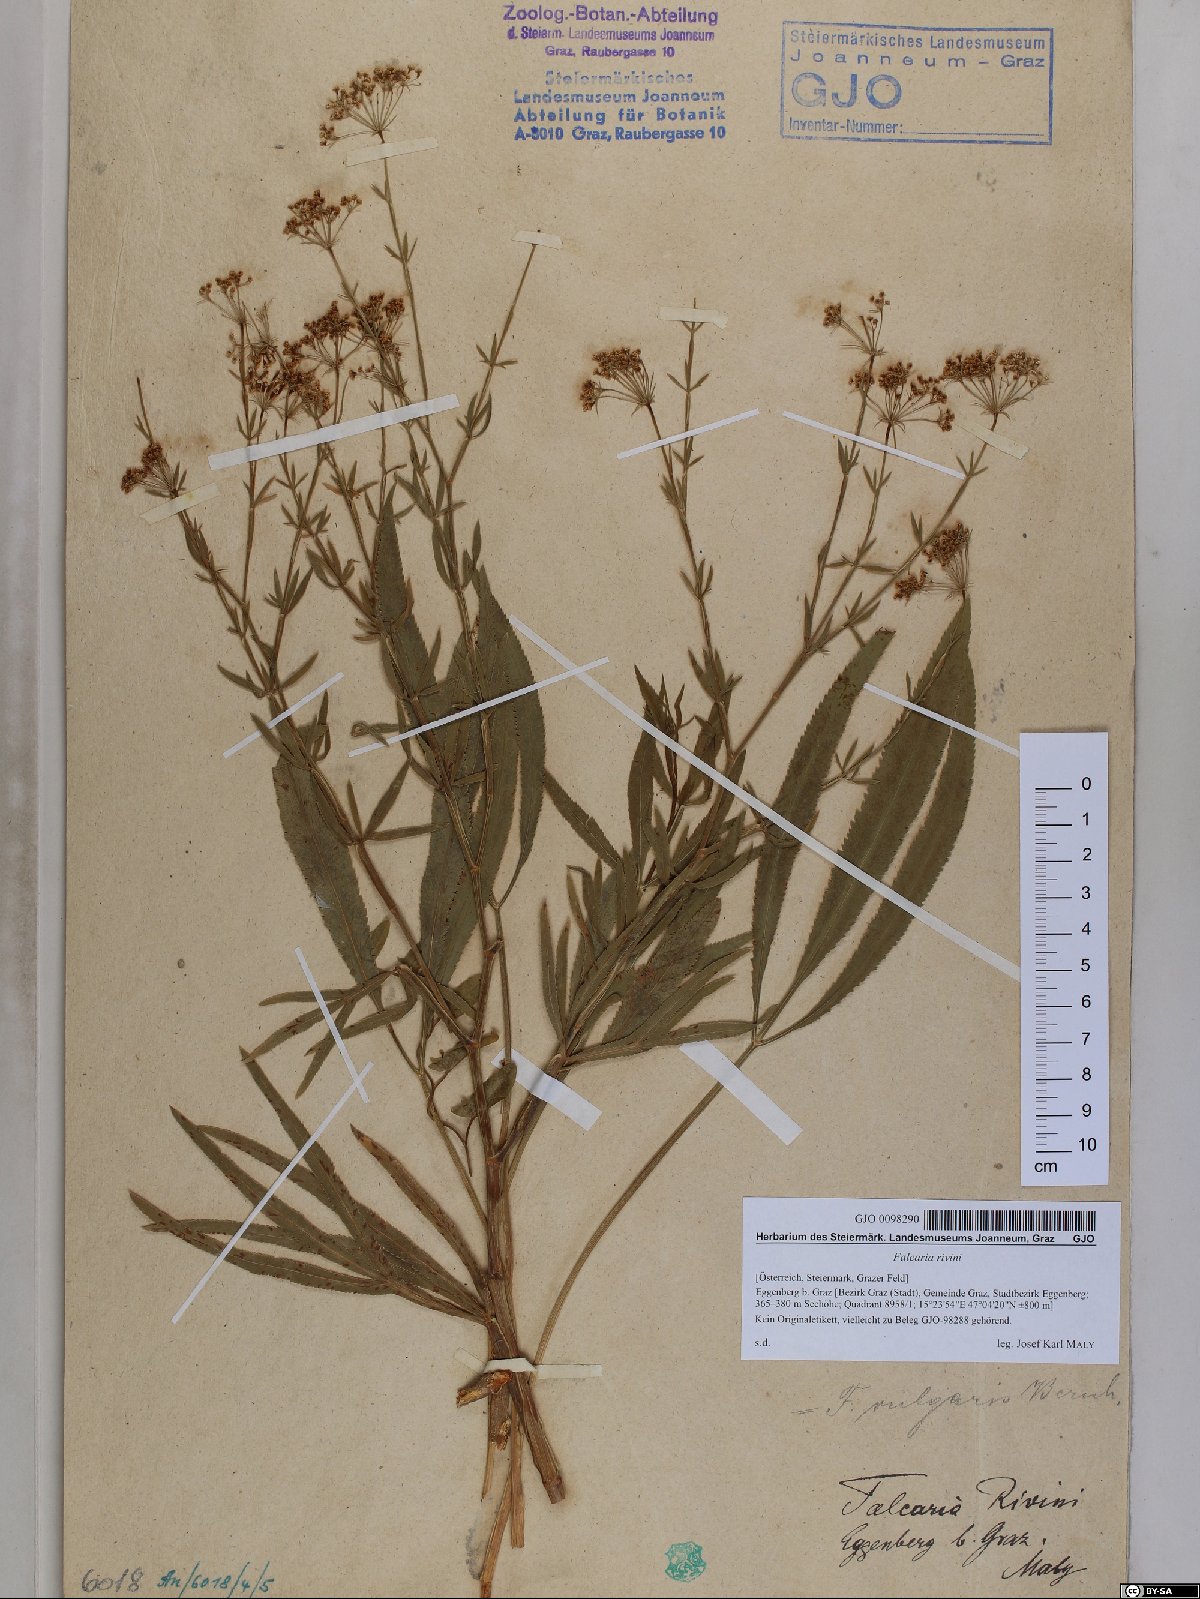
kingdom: Plantae
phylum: Tracheophyta
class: Magnoliopsida
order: Apiales
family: Apiaceae
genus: Falcaria
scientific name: Falcaria vulgaris
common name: Longleaf
